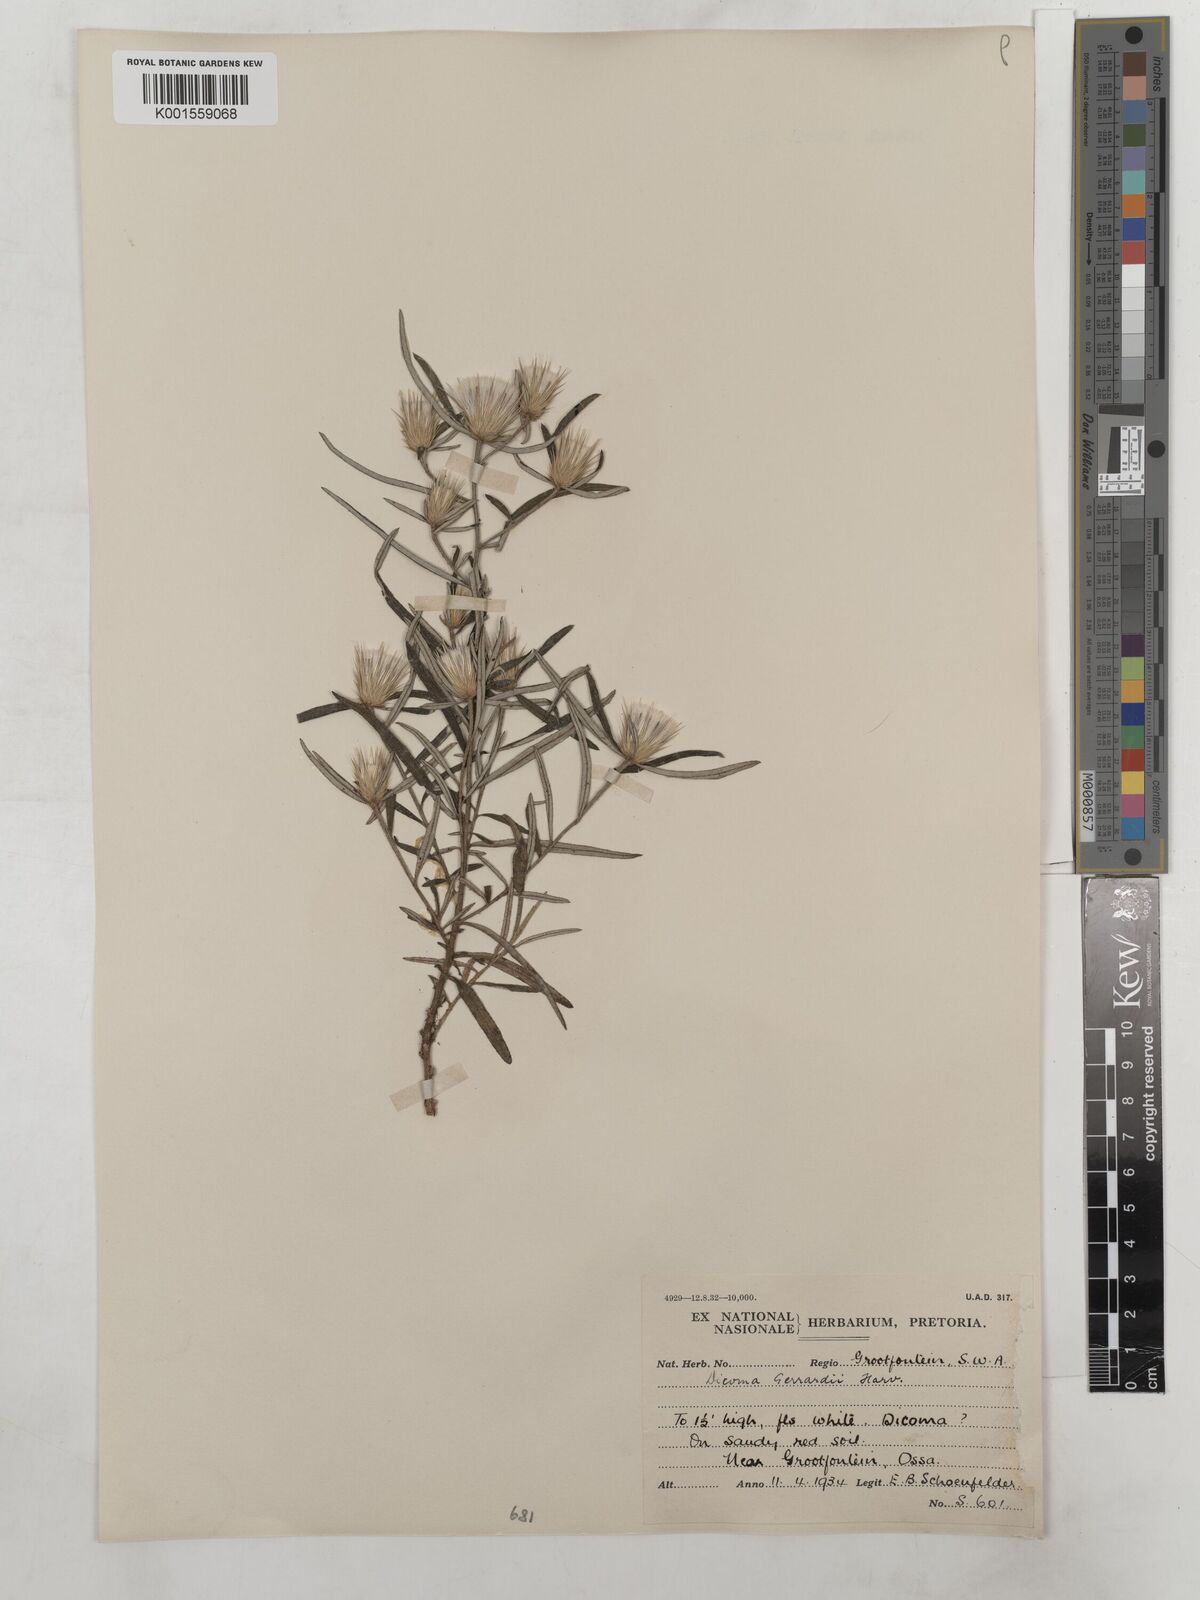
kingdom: Plantae
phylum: Tracheophyta
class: Magnoliopsida
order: Asterales
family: Asteraceae
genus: Dicoma
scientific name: Dicoma anomala
